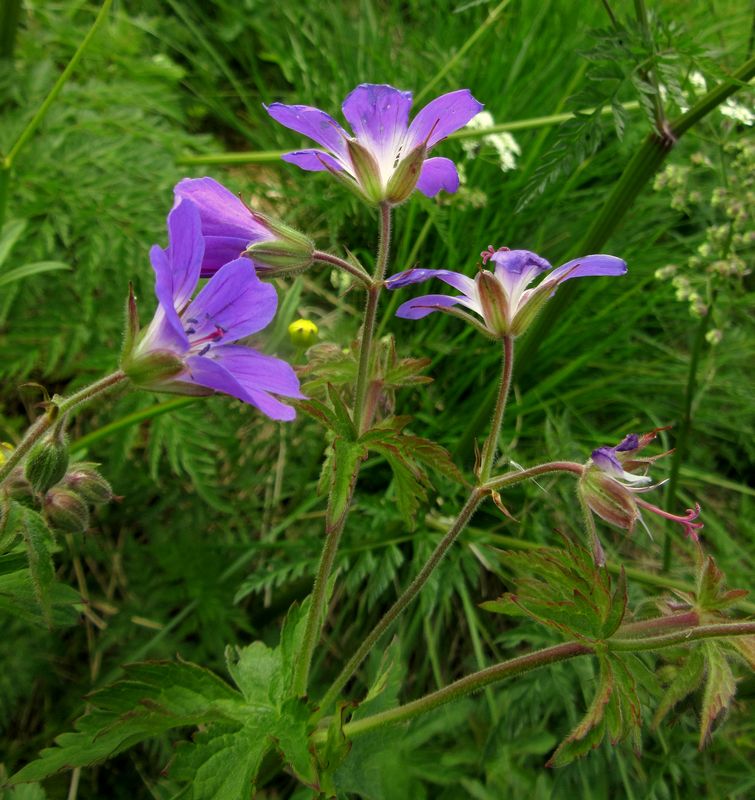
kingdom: Plantae
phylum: Tracheophyta
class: Magnoliopsida
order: Geraniales
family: Geraniaceae
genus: Geranium
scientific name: Geranium sylvaticum
